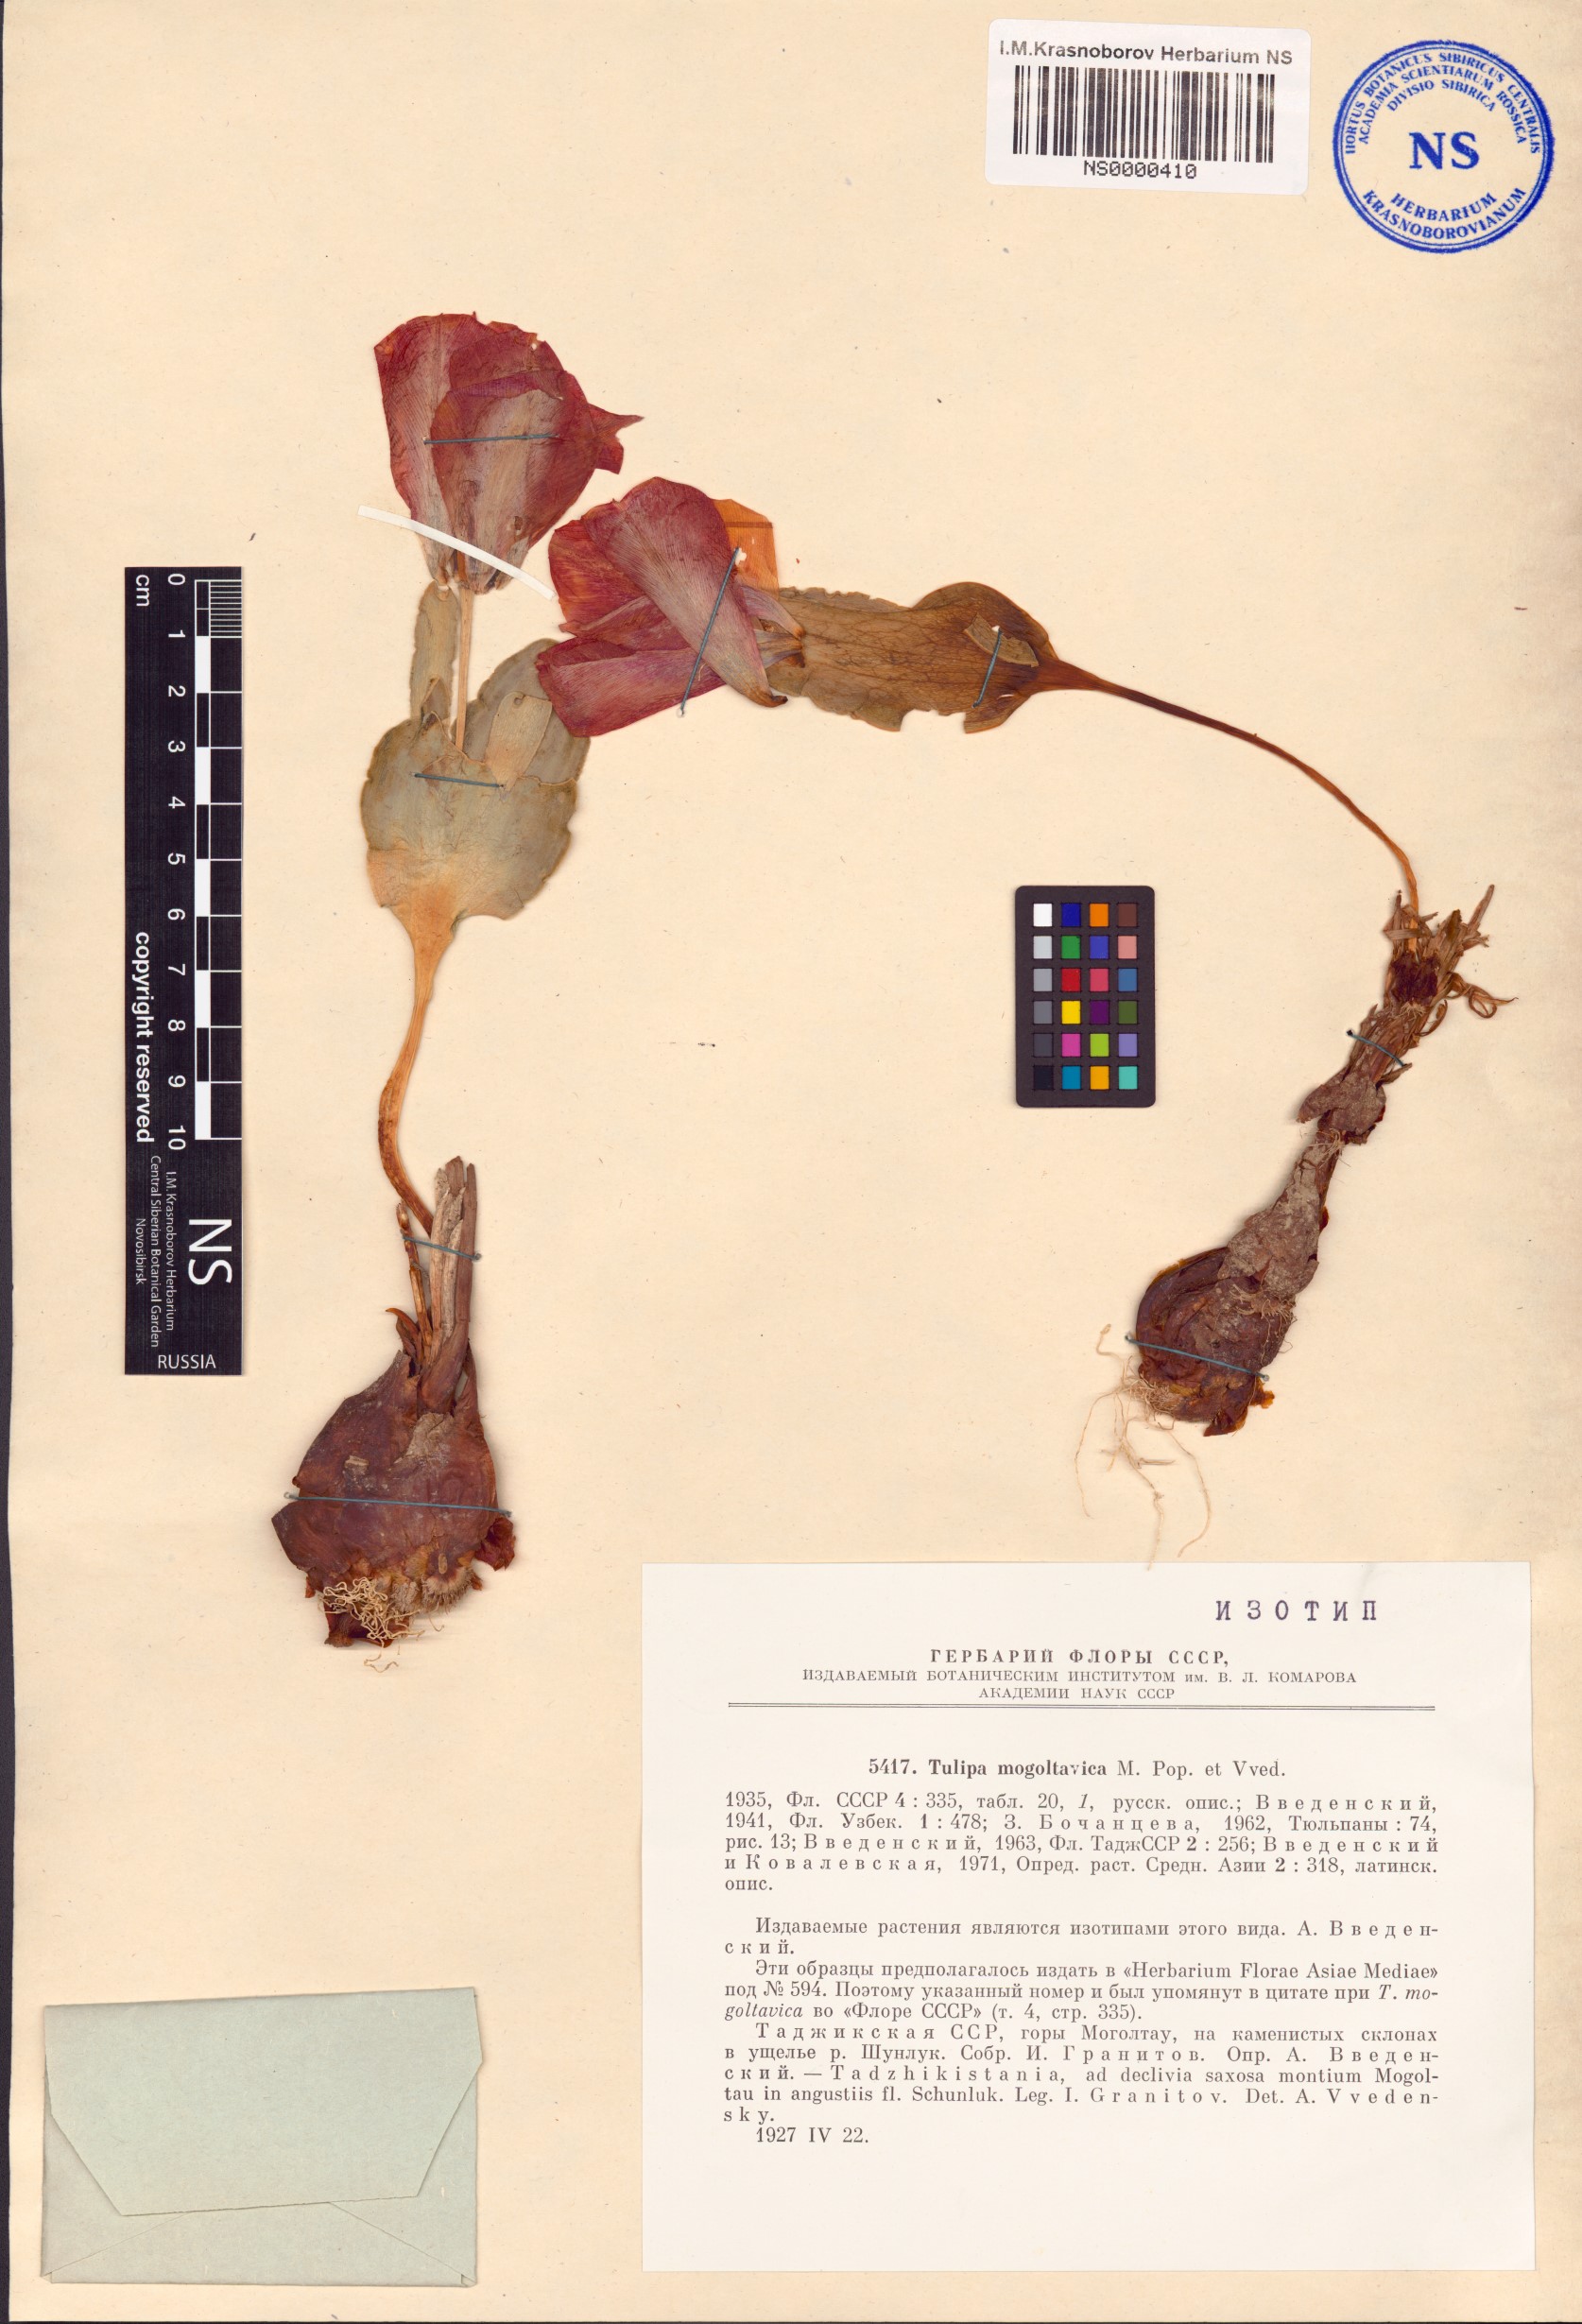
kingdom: Plantae
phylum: Tracheophyta
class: Liliopsida
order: Liliales
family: Liliaceae
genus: Tulipa
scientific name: Tulipa greigii
